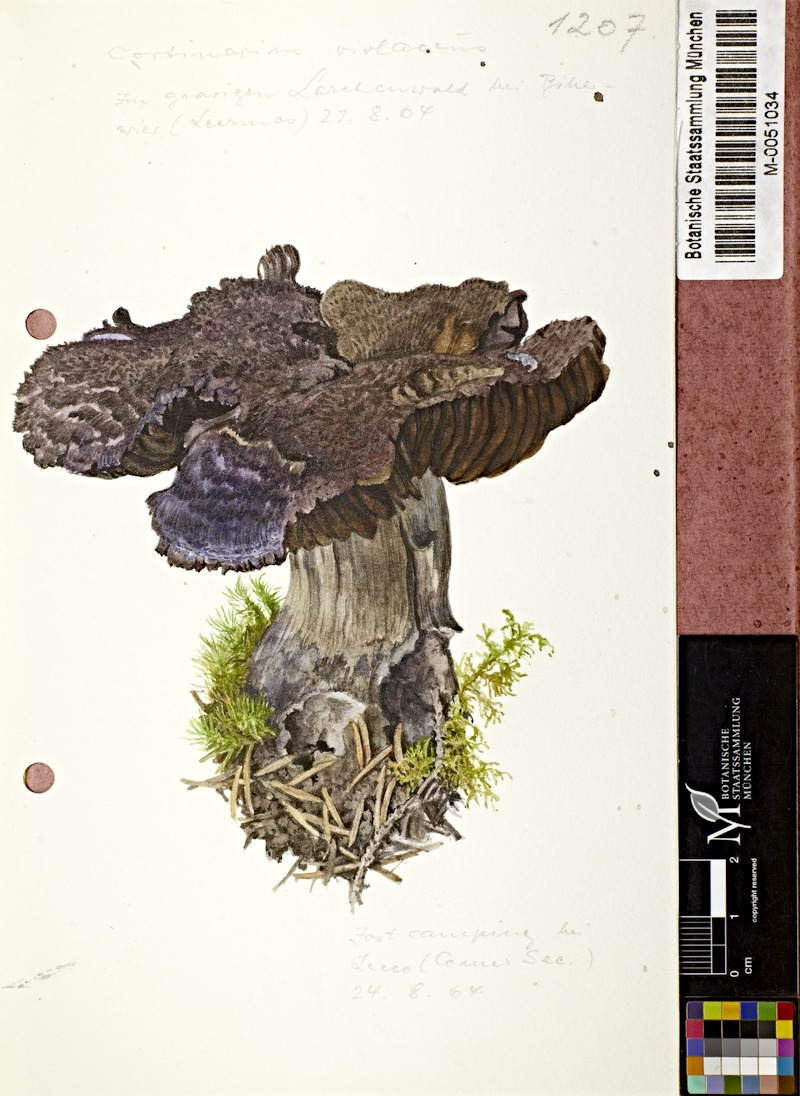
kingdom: Fungi
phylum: Basidiomycota
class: Agaricomycetes
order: Agaricales
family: Cortinariaceae
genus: Cortinarius
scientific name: Cortinarius violaceus
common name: Violet webcap
